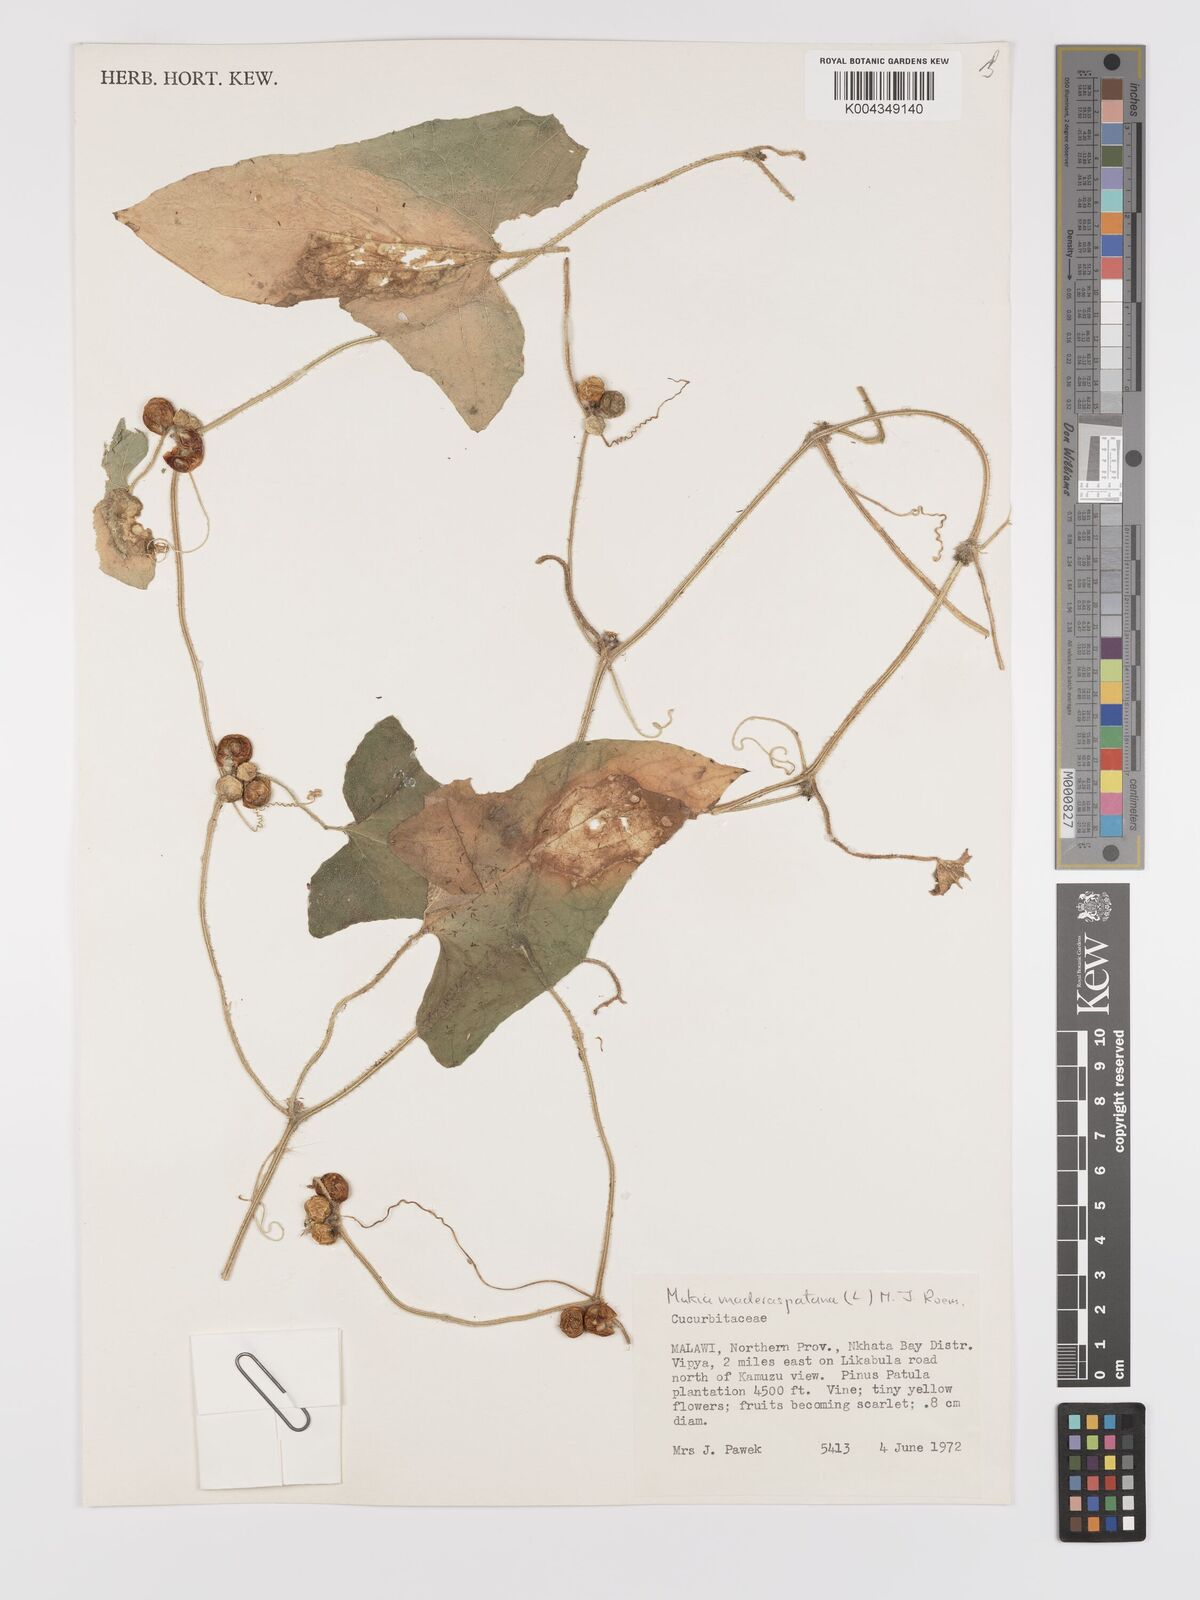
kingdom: Plantae
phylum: Tracheophyta
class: Magnoliopsida
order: Cucurbitales
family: Cucurbitaceae
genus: Cucumis
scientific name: Cucumis maderaspatanus
